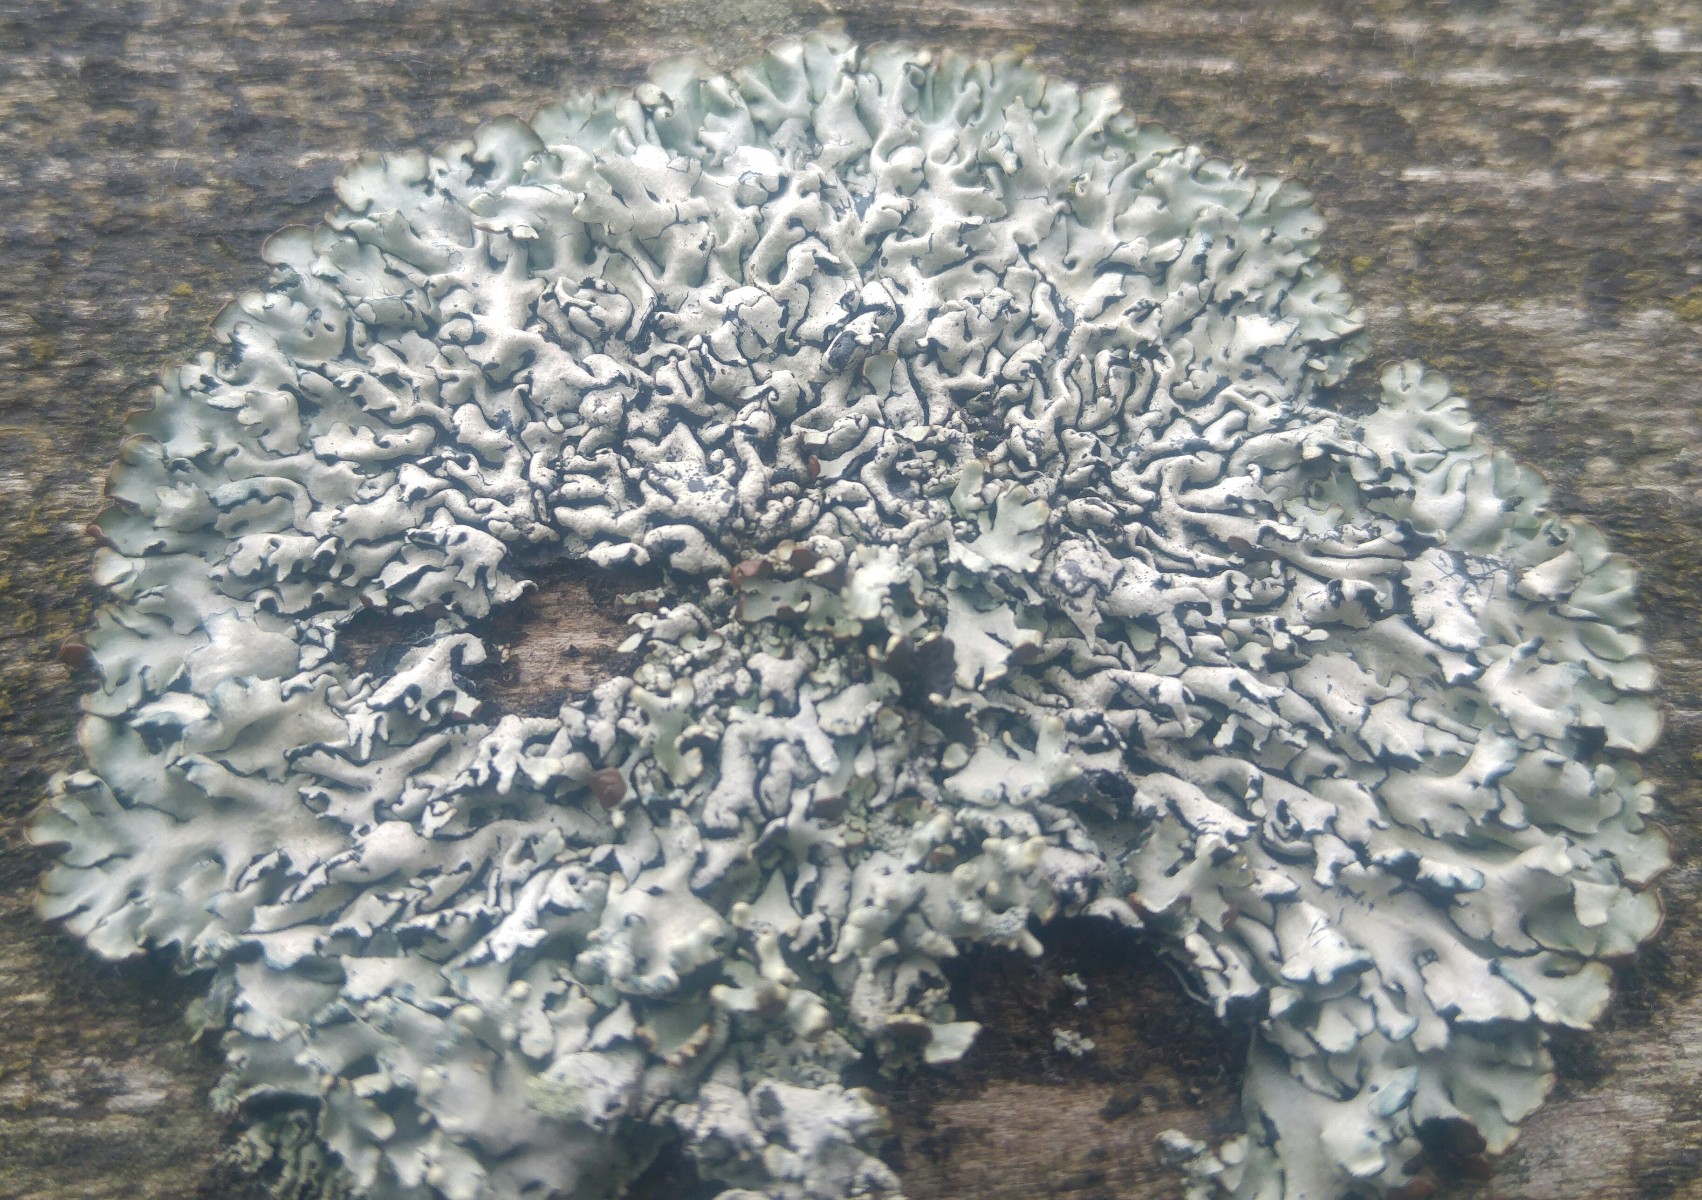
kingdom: Fungi
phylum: Ascomycota
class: Lecanoromycetes
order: Lecanorales
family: Parmeliaceae
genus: Hypogymnia
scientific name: Hypogymnia physodes
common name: almindelig kvistlav
